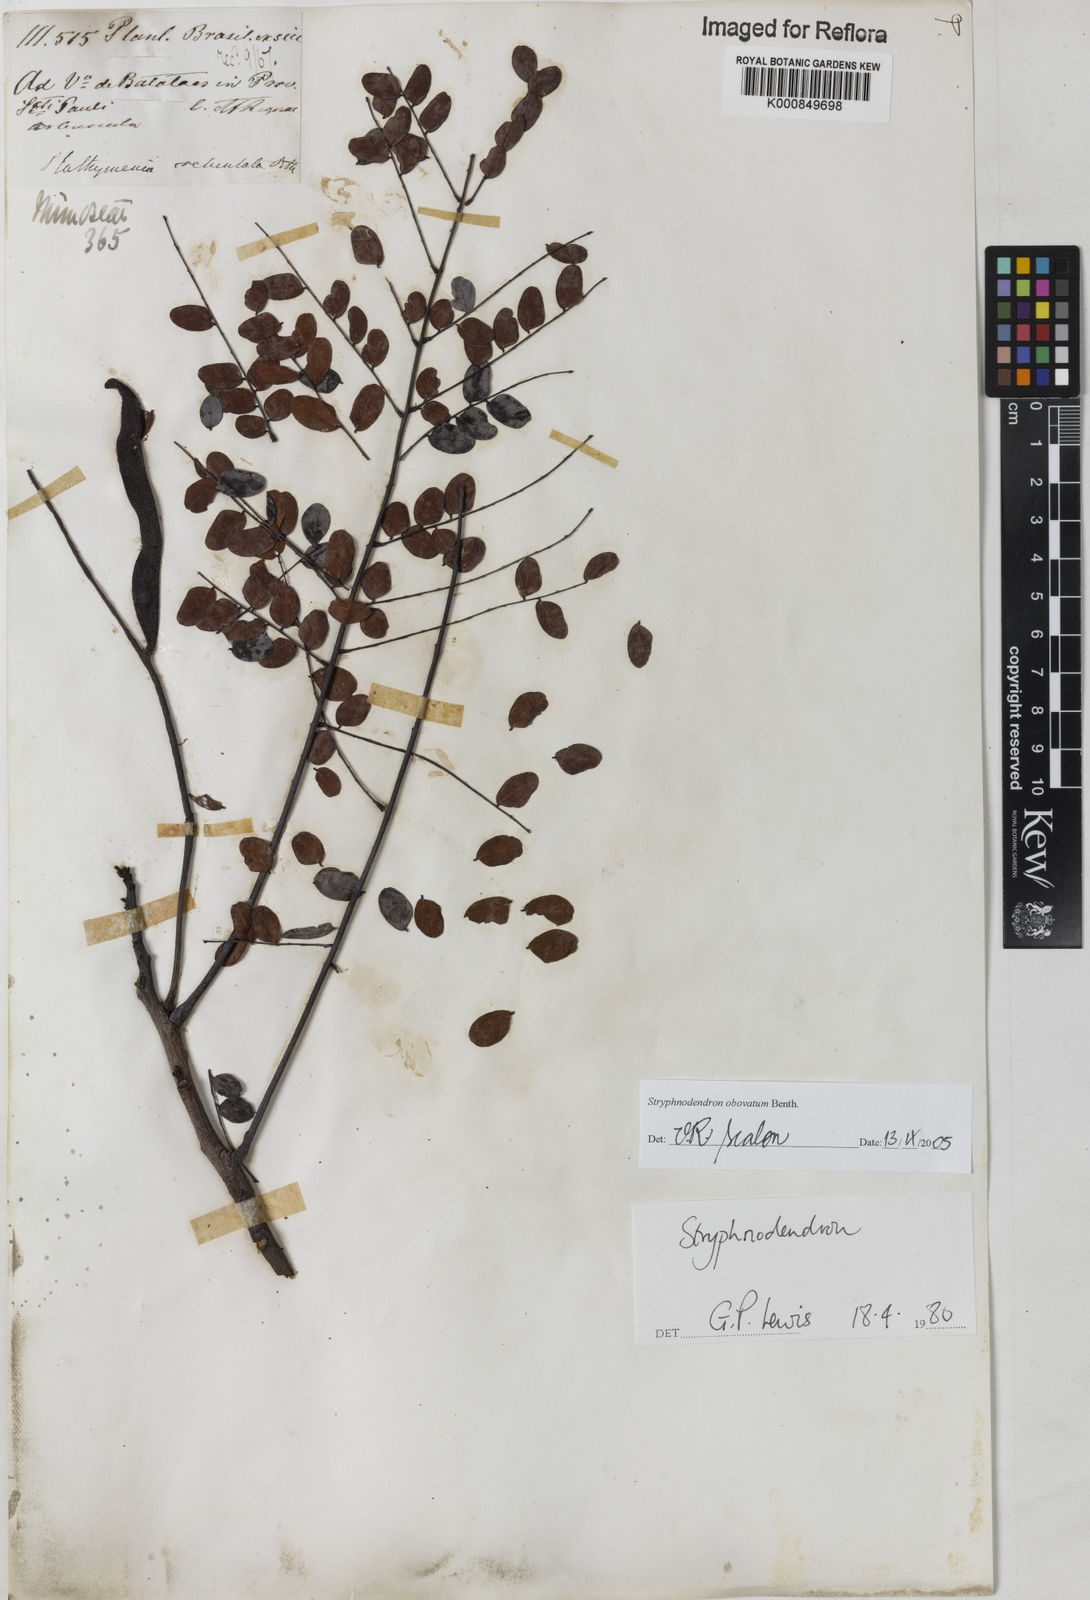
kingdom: Plantae
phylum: Tracheophyta
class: Magnoliopsida
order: Fabales
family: Fabaceae
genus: Stryphnodendron
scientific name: Stryphnodendron rotundifolium
